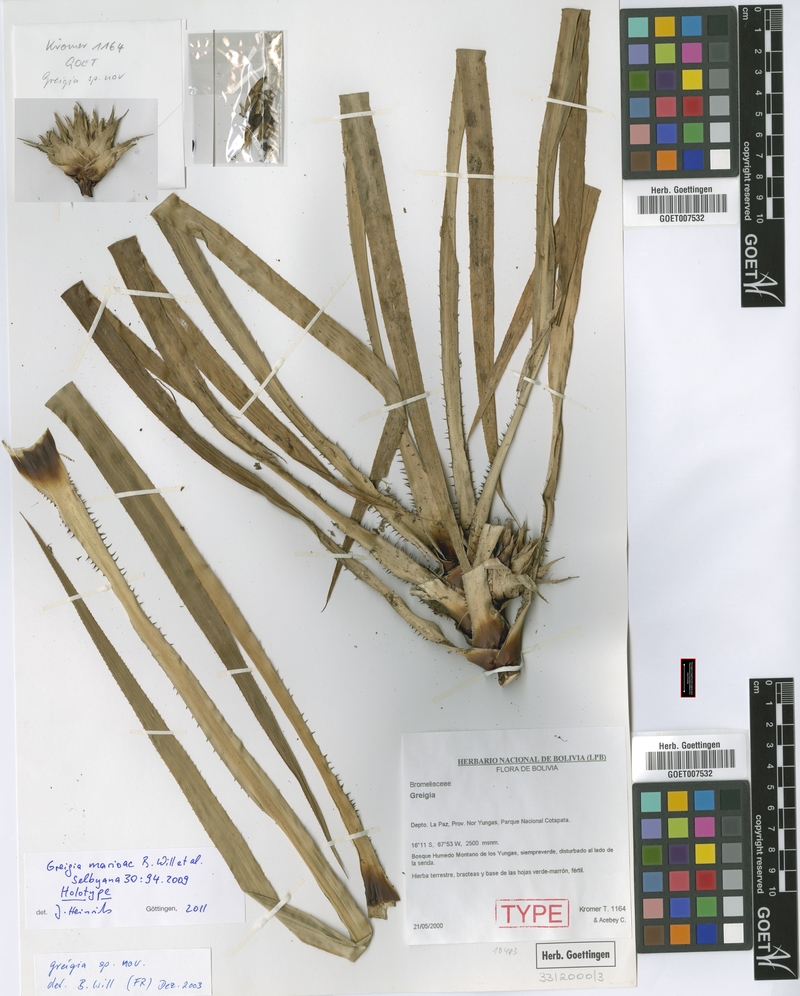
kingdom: Plantae
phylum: Tracheophyta
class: Liliopsida
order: Poales
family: Bromeliaceae
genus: Greigia
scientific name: Greigia marioi
